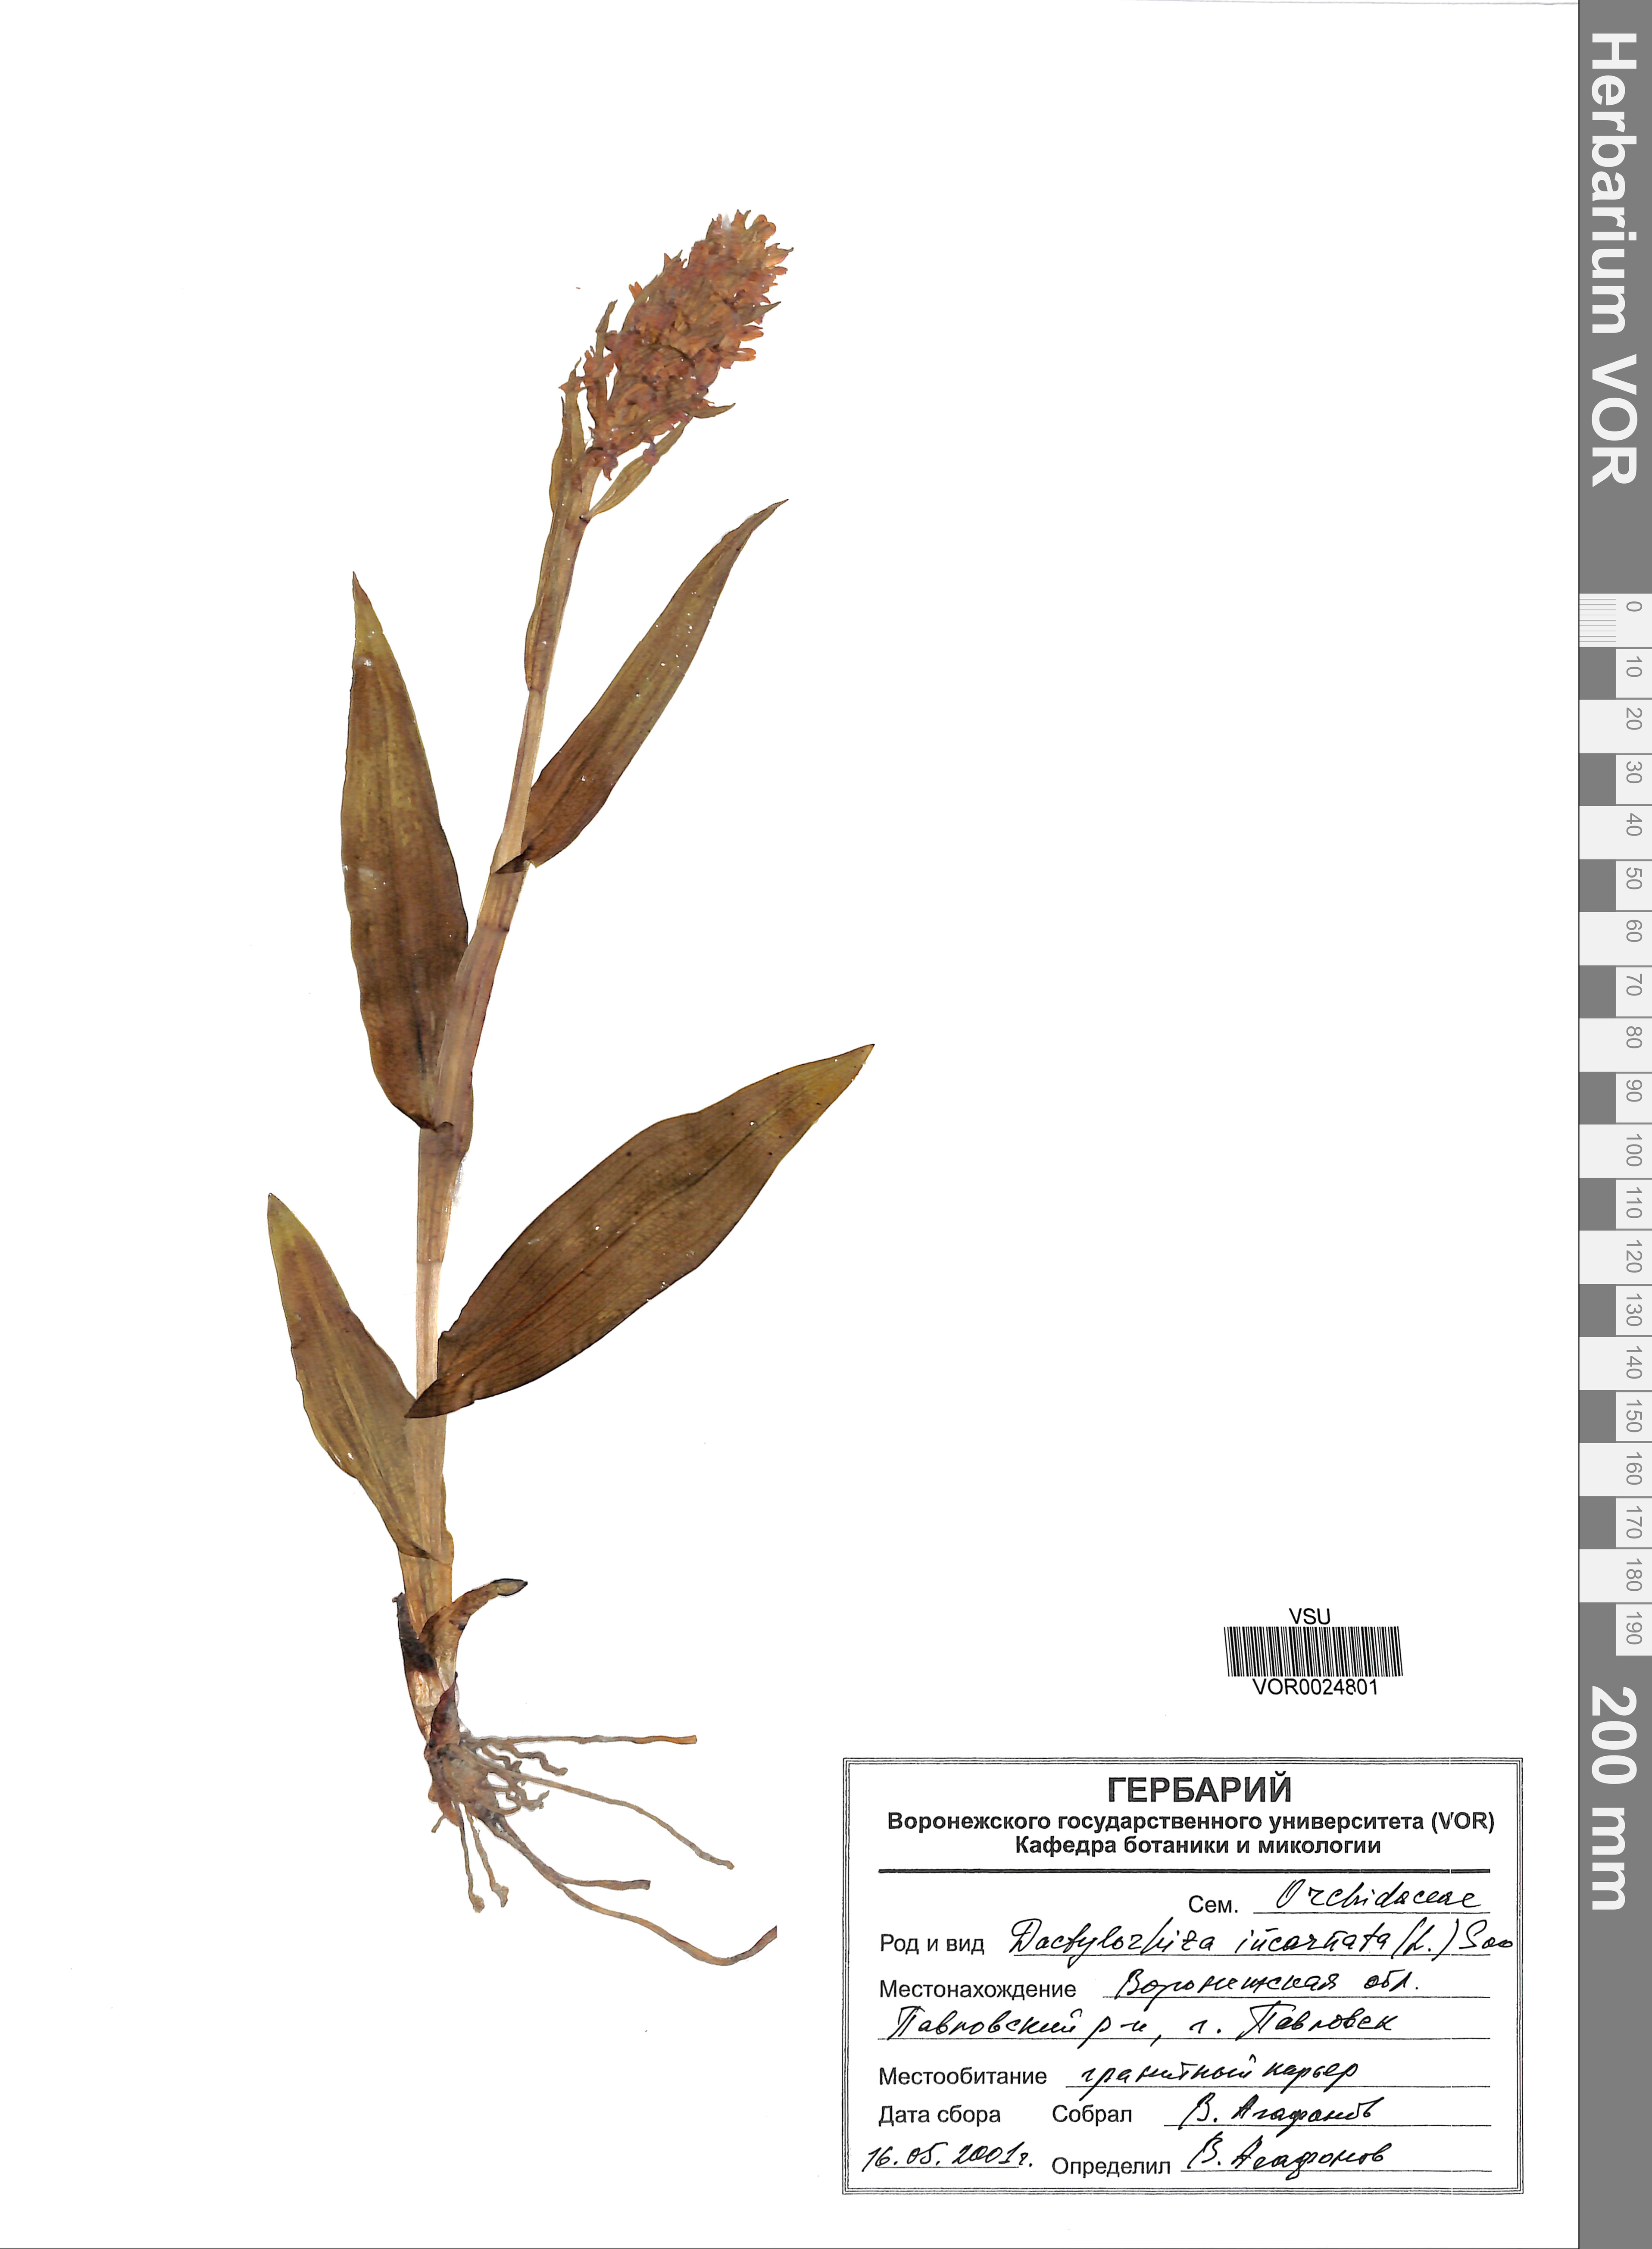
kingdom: Plantae
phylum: Tracheophyta
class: Liliopsida
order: Asparagales
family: Orchidaceae
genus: Dactylorhiza
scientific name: Dactylorhiza incarnata
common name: Early marsh-orchid
